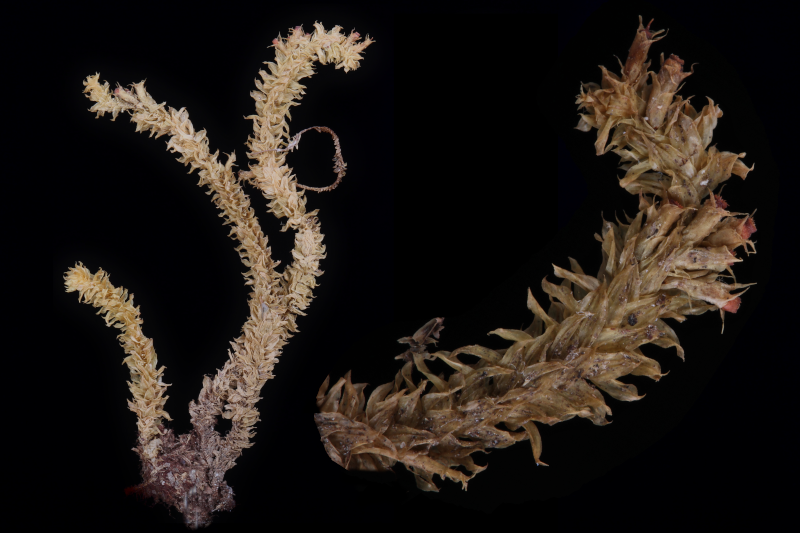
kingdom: Plantae
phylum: Bryophyta
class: Bryopsida
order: Ptychomniales
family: Ptychomniaceae
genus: Garovaglia
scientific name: Garovaglia powellii
